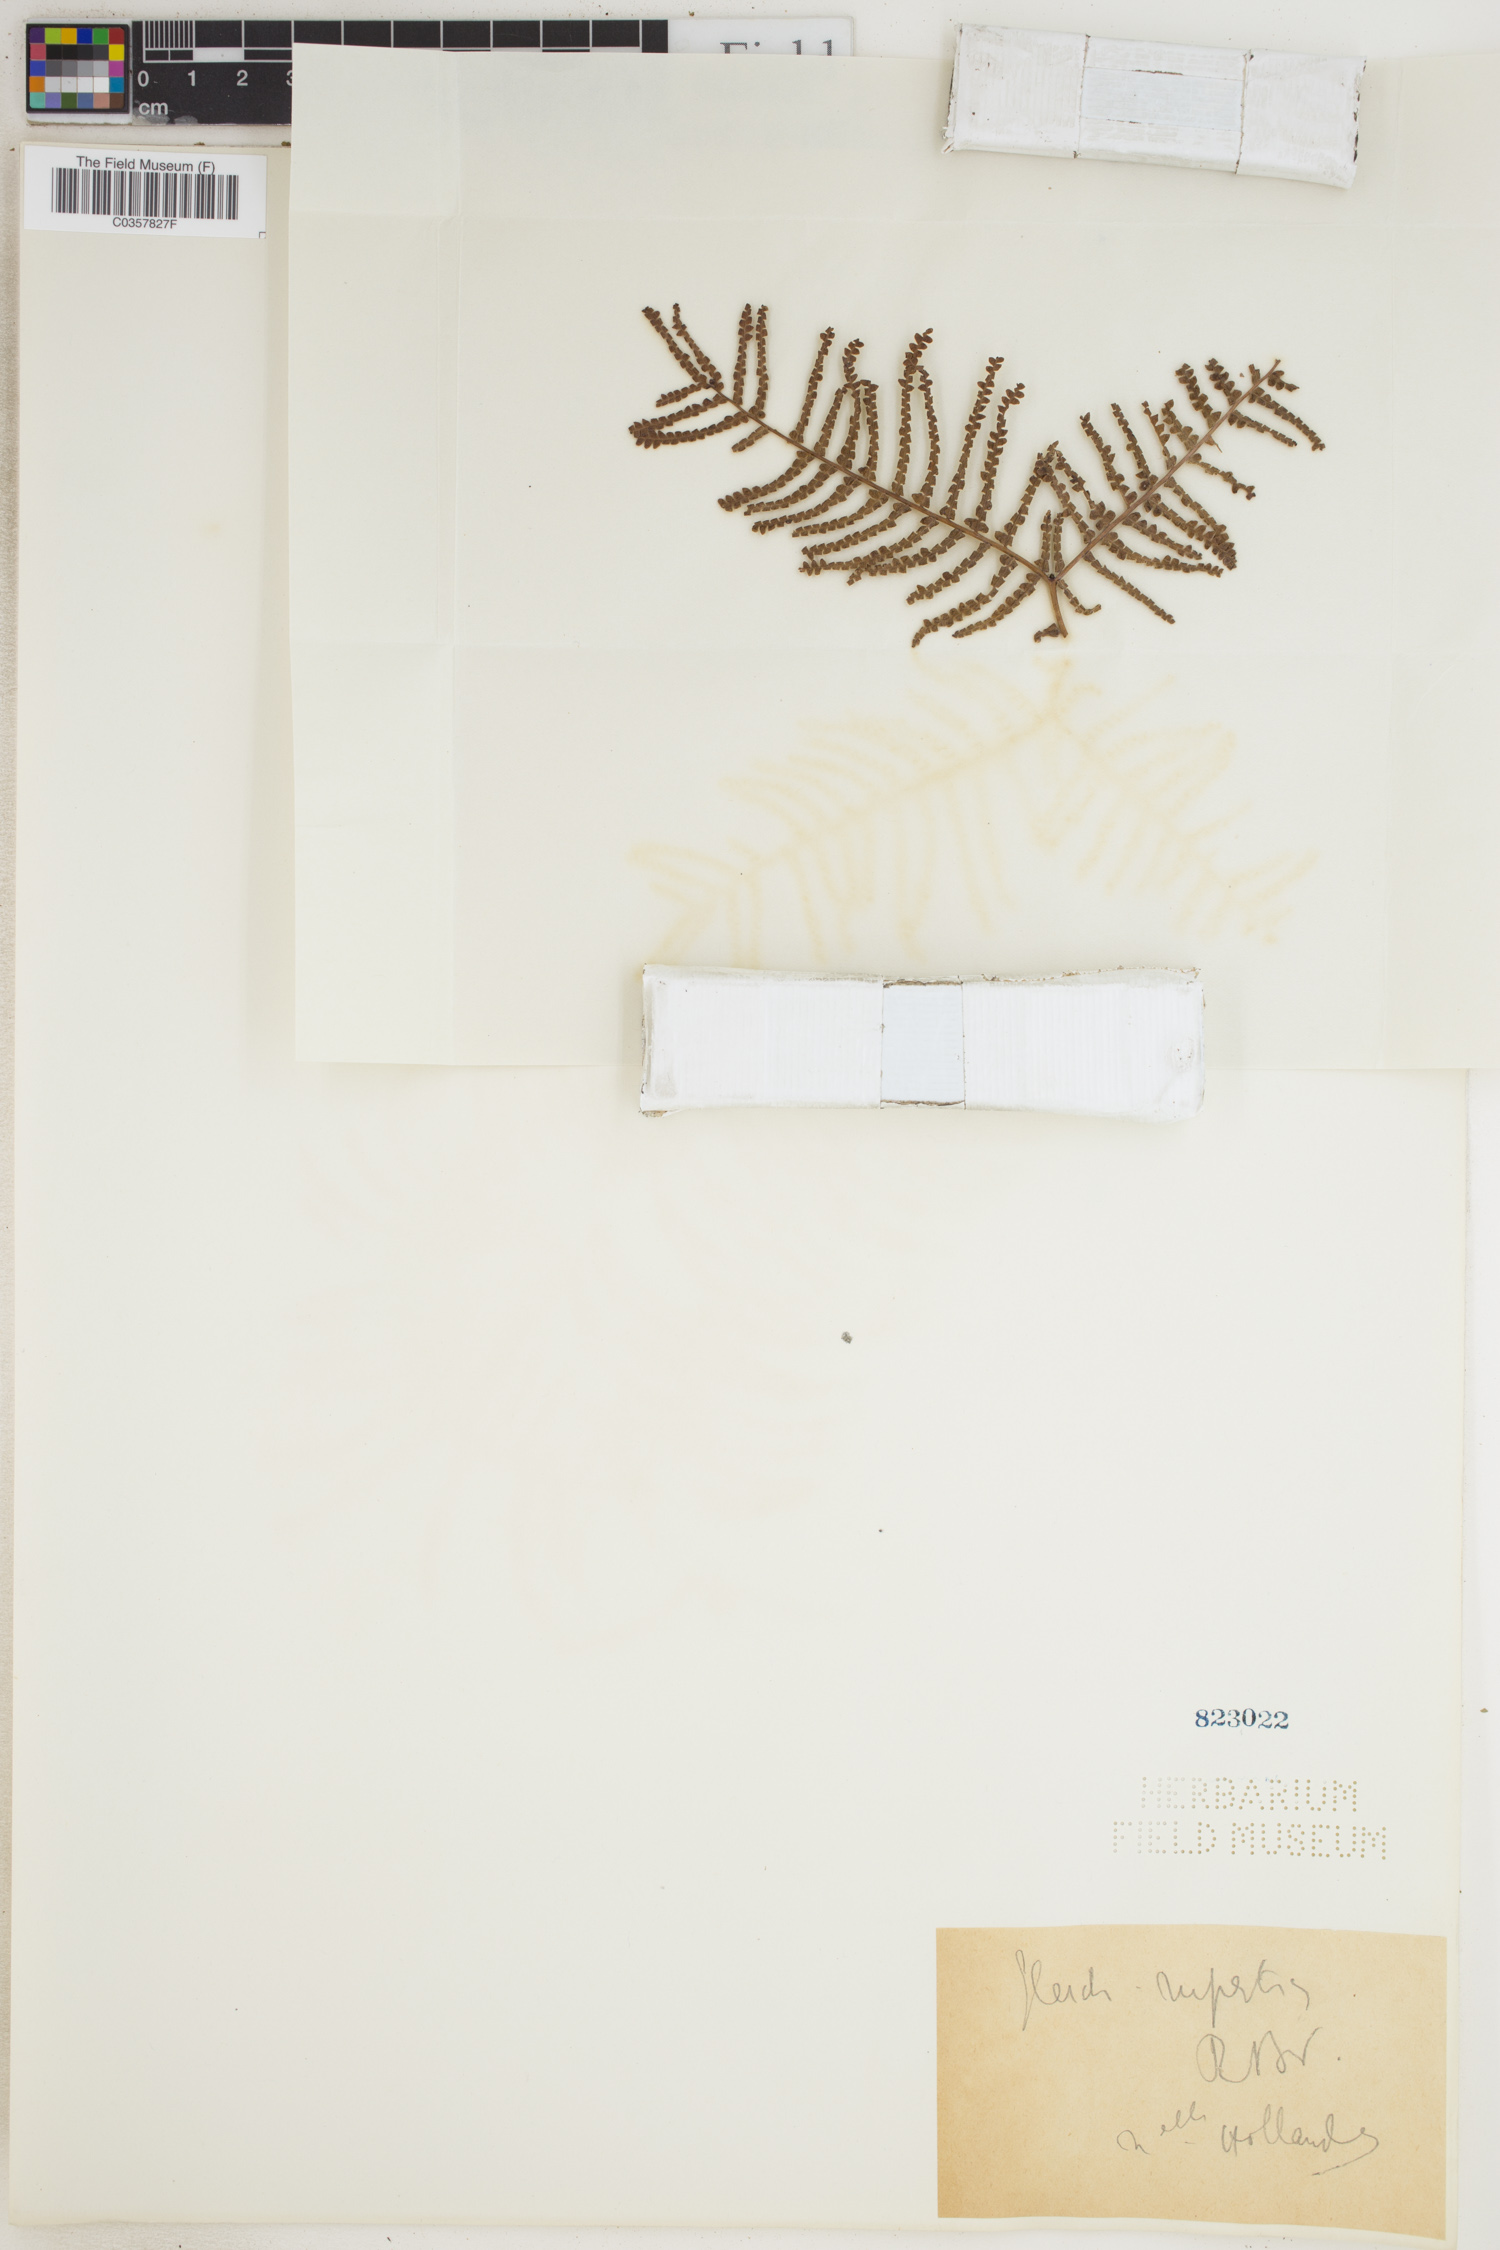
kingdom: Plantae
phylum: Tracheophyta
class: Polypodiopsida
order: Gleicheniales
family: Gleicheniaceae
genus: Gleichenia
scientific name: Gleichenia rupestris
